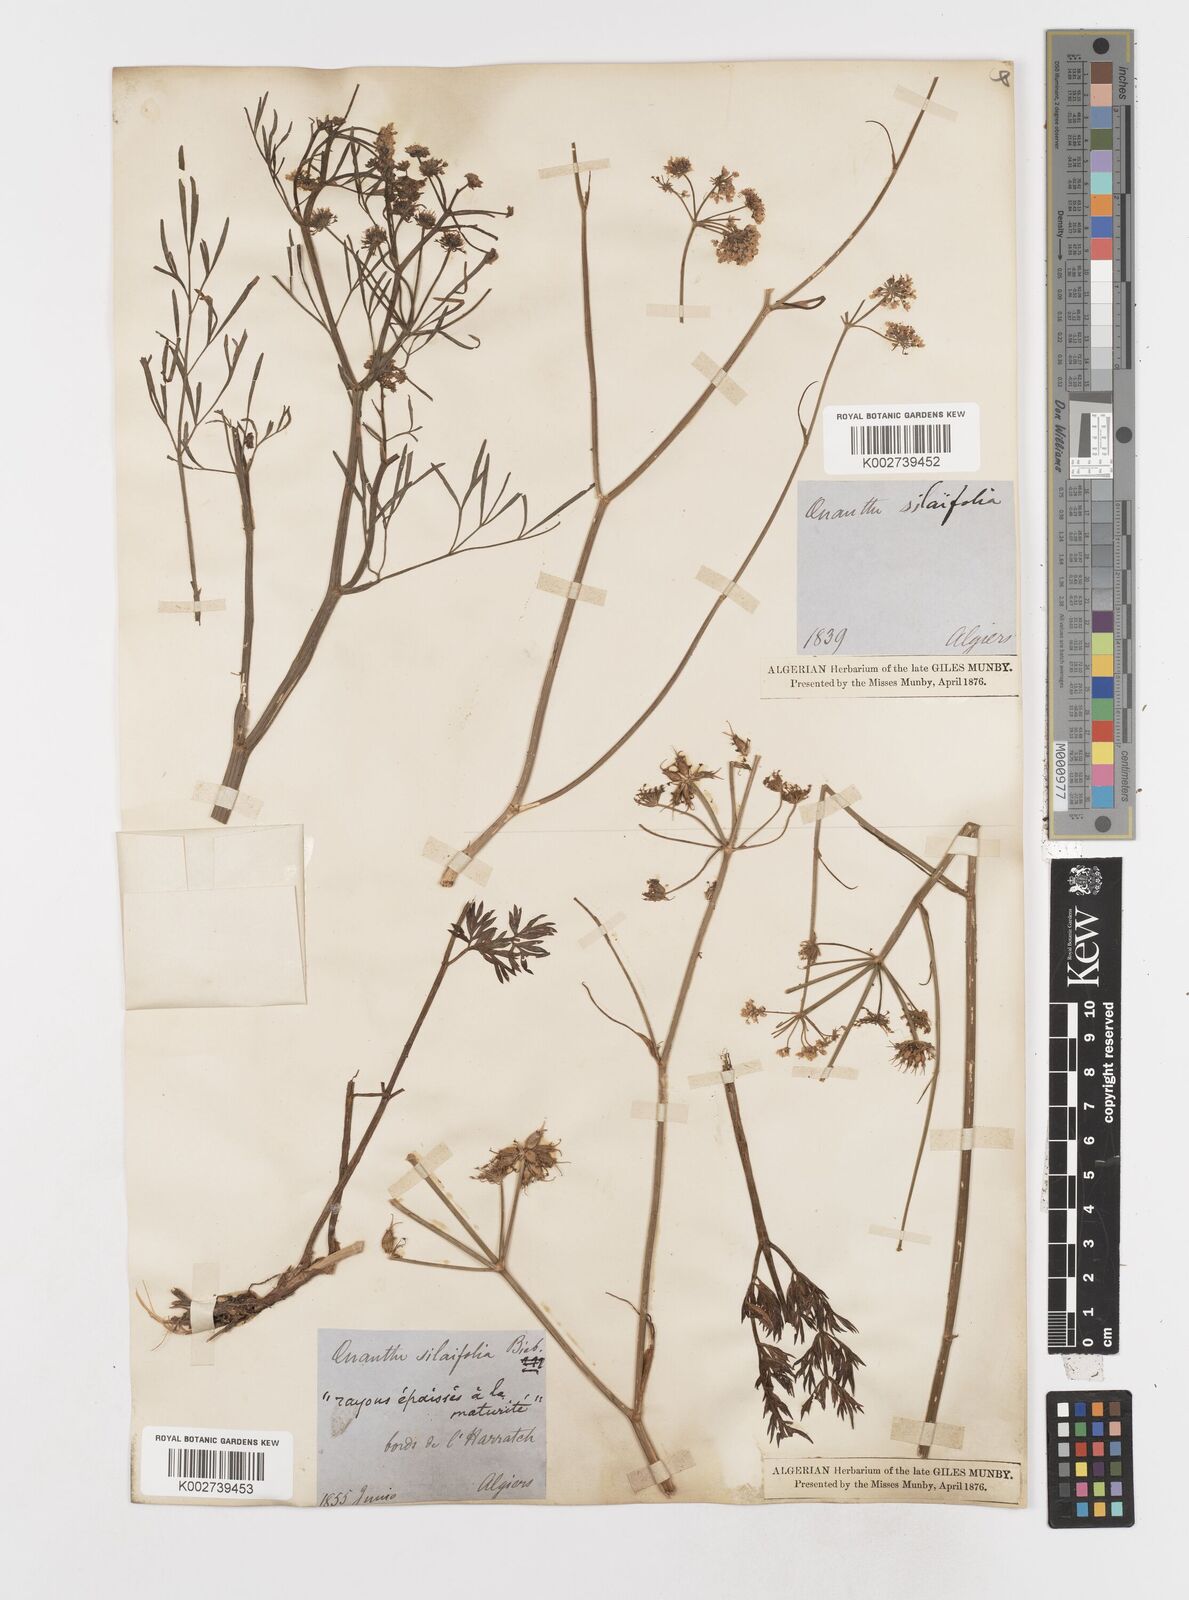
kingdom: Plantae
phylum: Tracheophyta
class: Magnoliopsida
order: Apiales
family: Apiaceae
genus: Oenanthe
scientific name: Oenanthe silaifolia
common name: Narrow-leaved water-dropwort
